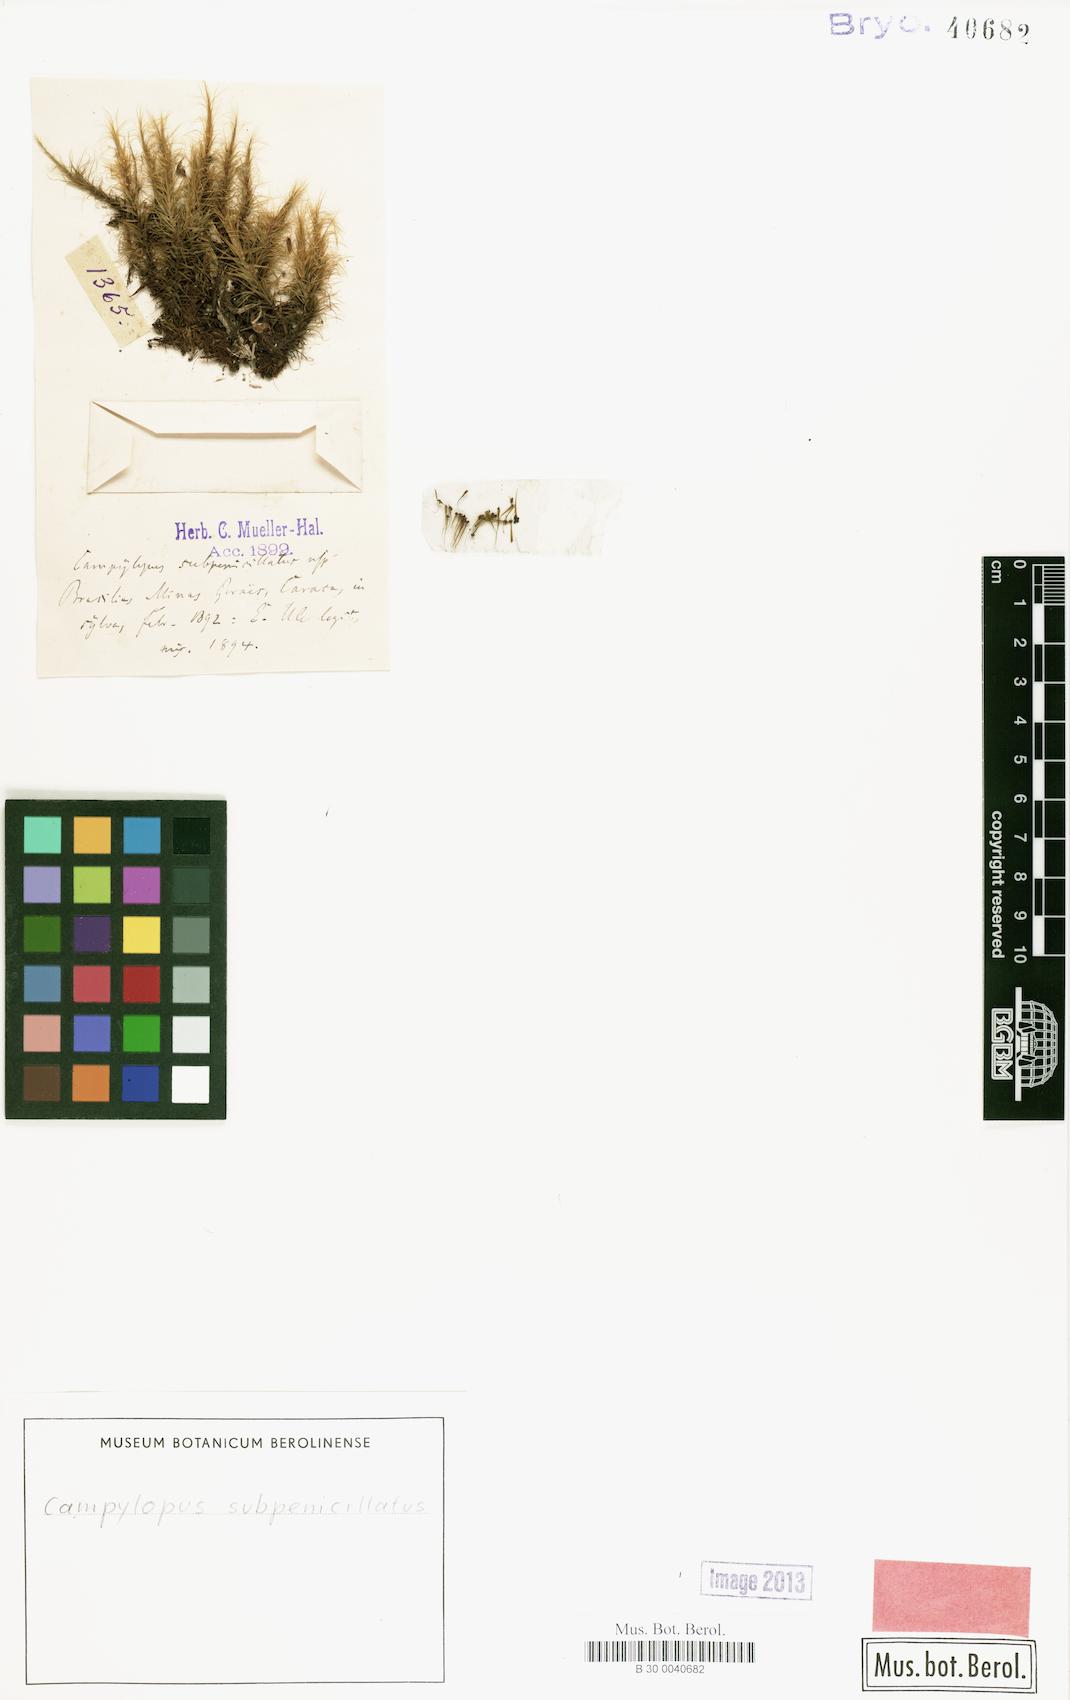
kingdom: Plantae
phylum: Bryophyta
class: Bryopsida
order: Dicranales
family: Leucobryaceae
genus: Campylopus
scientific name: Campylopus lamellinervis
